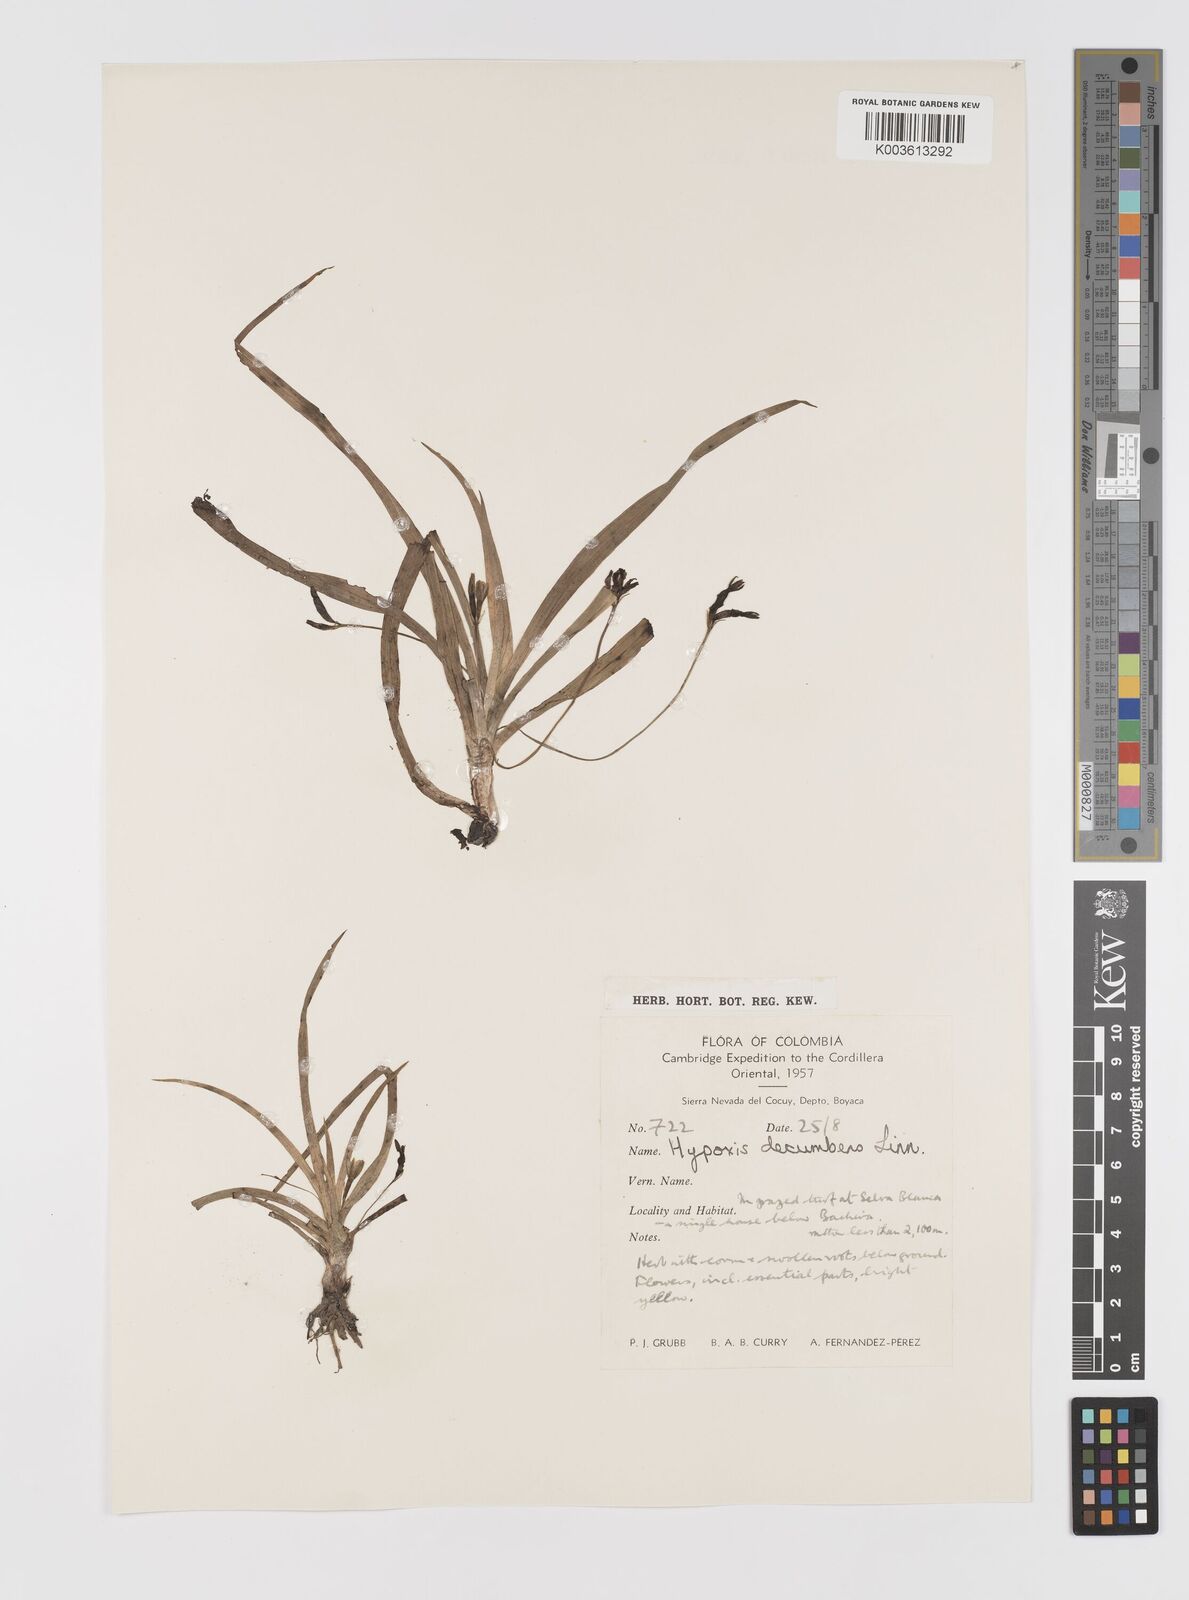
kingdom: Plantae
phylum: Tracheophyta
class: Liliopsida
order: Asparagales
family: Hypoxidaceae
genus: Hypoxis
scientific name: Hypoxis decumbens
